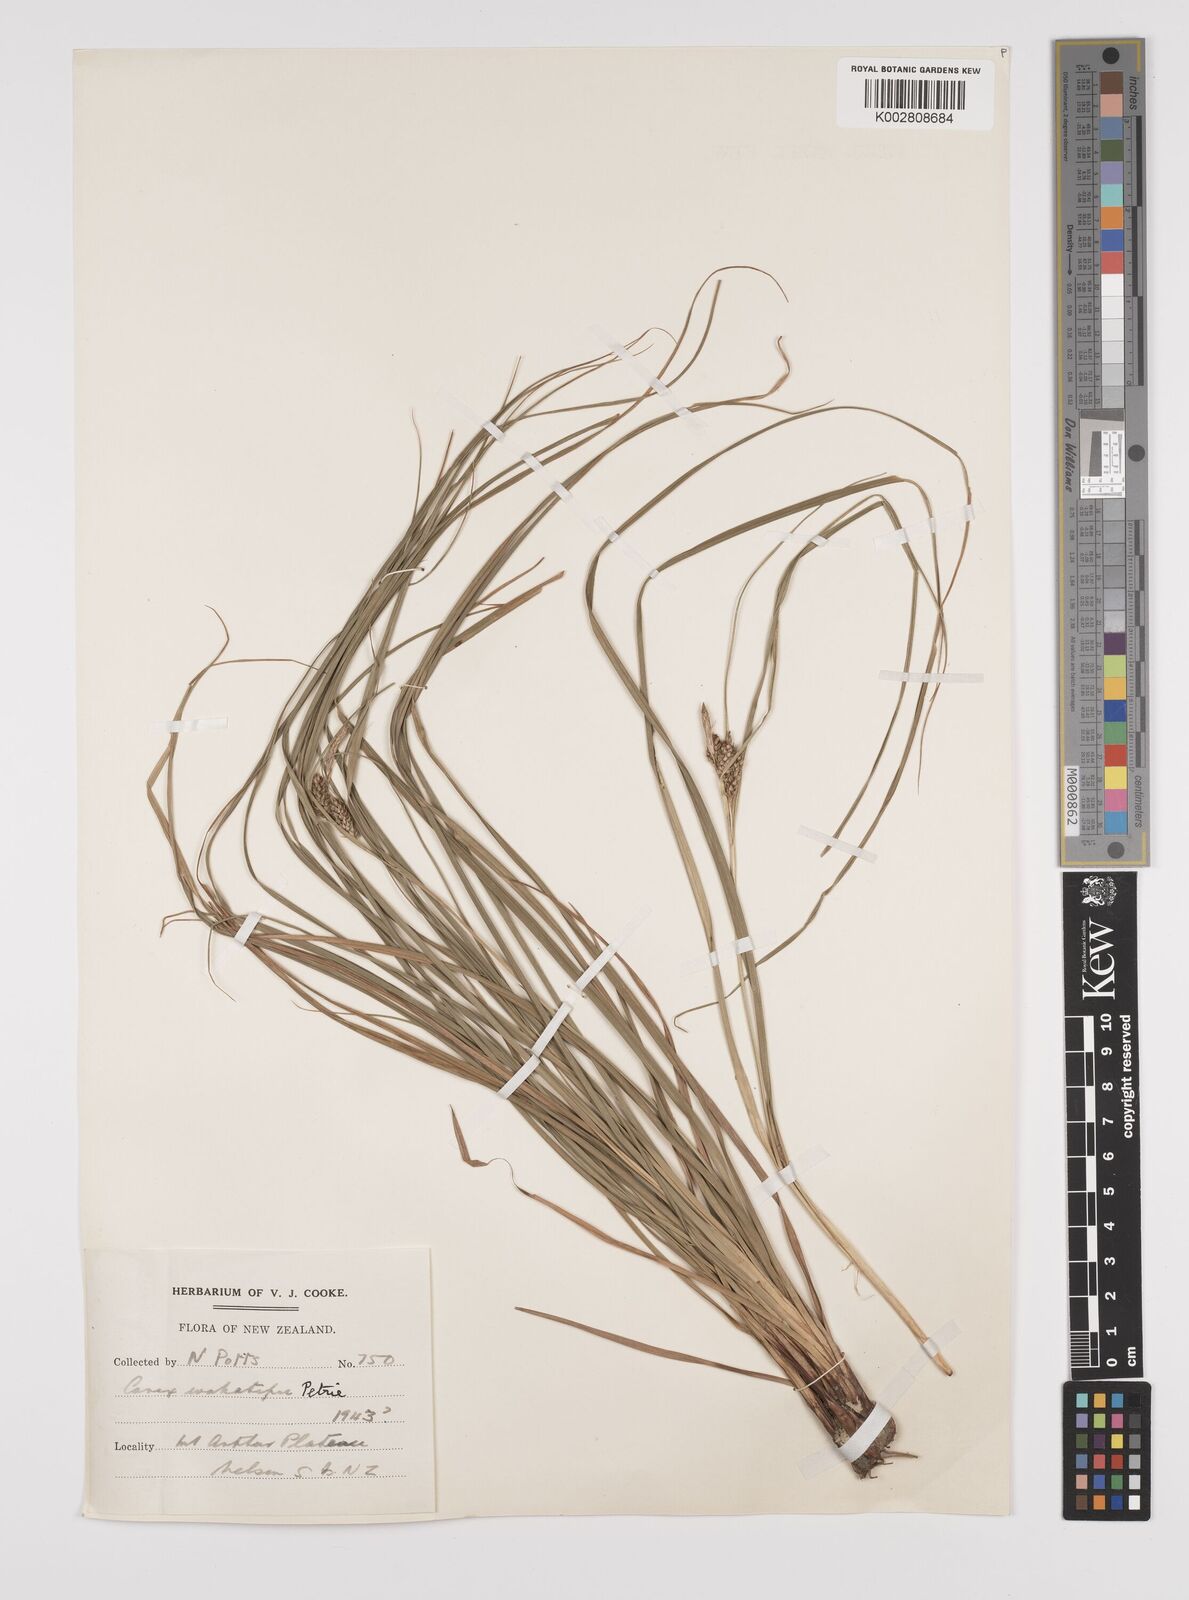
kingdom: Plantae
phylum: Tracheophyta
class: Liliopsida
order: Poales
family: Cyperaceae
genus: Carex
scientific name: Carex wakatipu
